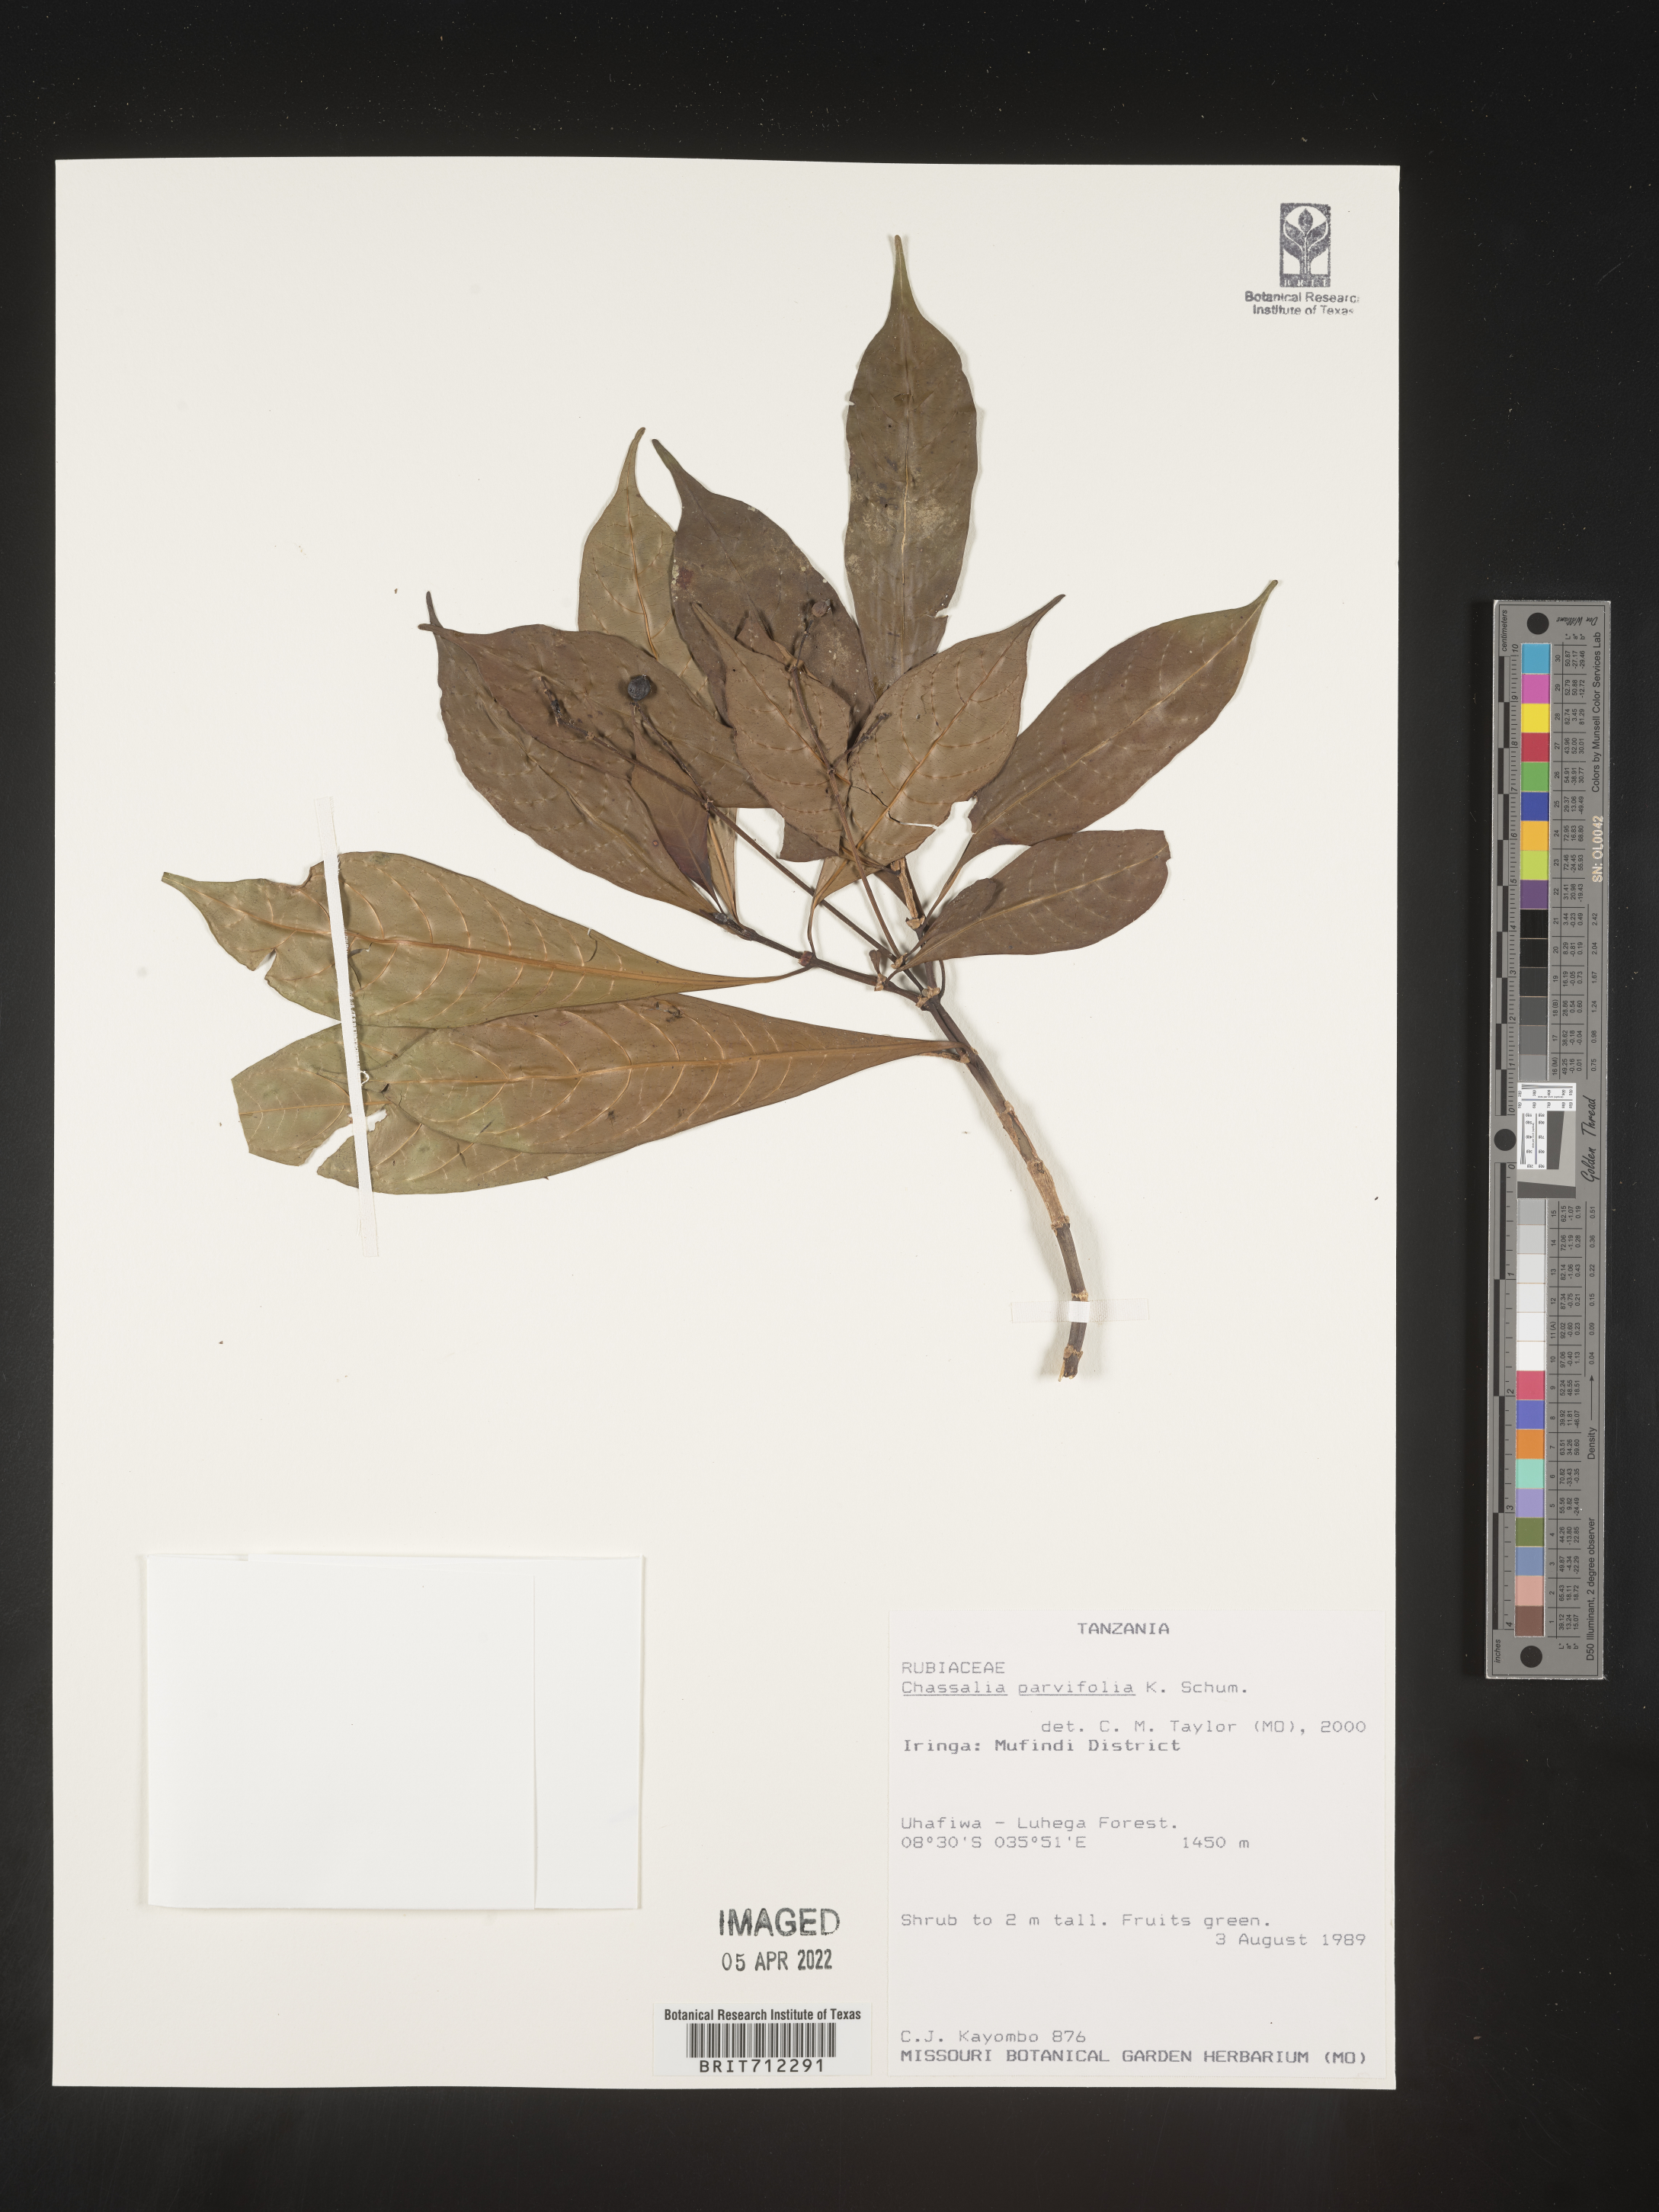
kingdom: Plantae
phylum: Tracheophyta
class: Magnoliopsida
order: Gentianales
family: Rubiaceae
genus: Chassalia
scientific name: Chassalia
